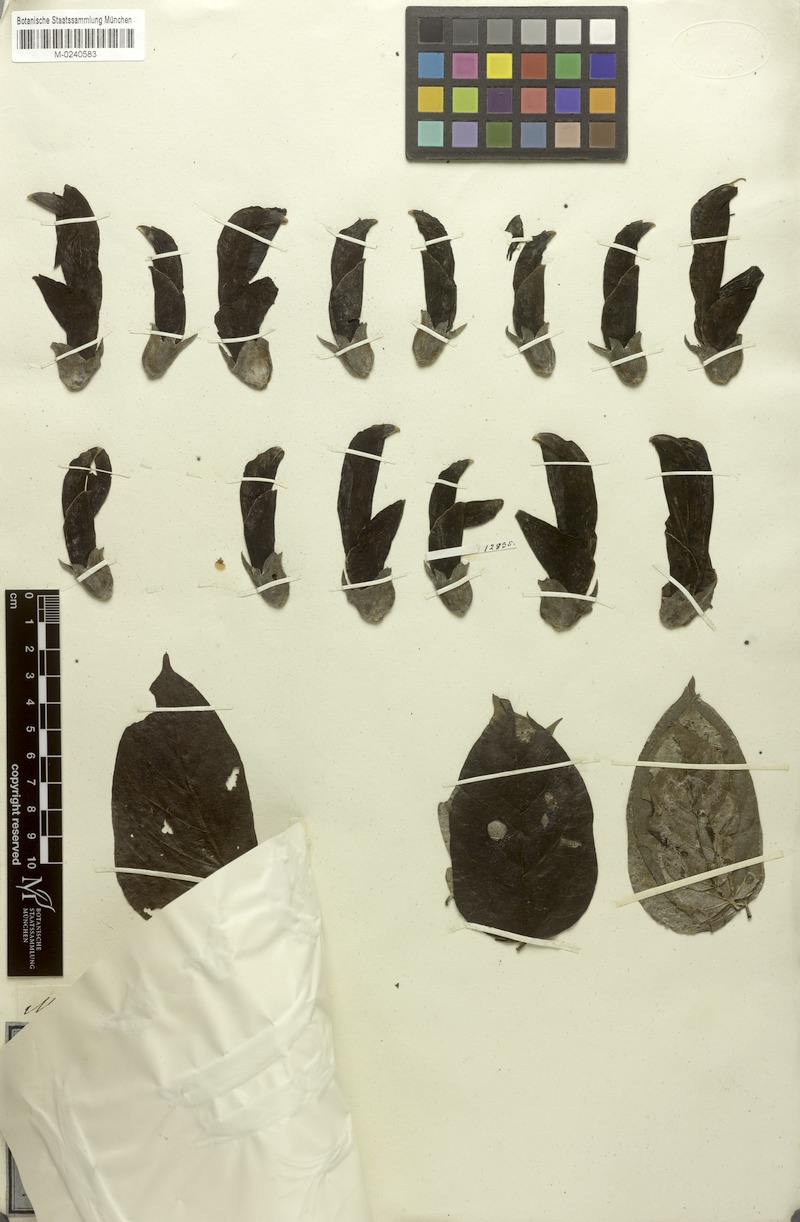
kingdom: Plantae
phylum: Tracheophyta
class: Magnoliopsida
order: Fabales
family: Fabaceae
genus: Mucuna
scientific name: Mucuna rostrata
